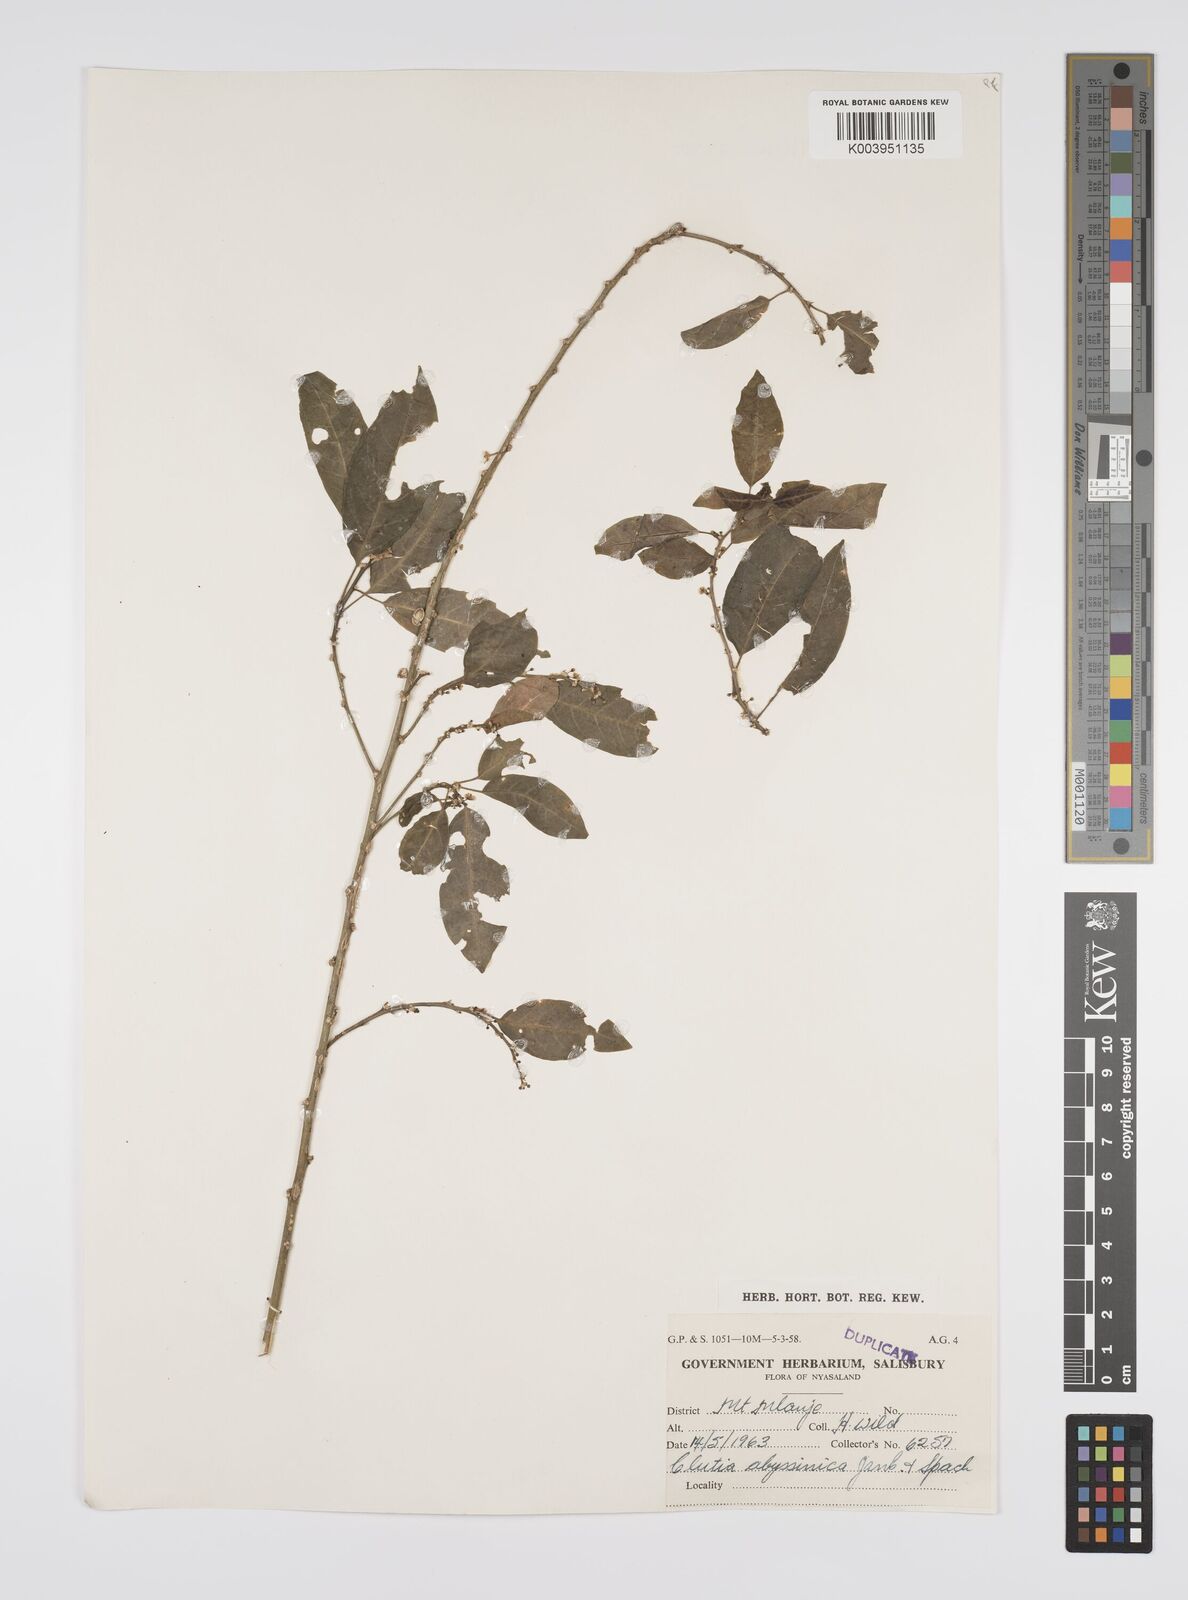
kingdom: Plantae
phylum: Tracheophyta
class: Magnoliopsida
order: Malpighiales
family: Peraceae
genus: Clutia
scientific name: Clutia abyssinica
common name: Large lightning bush
